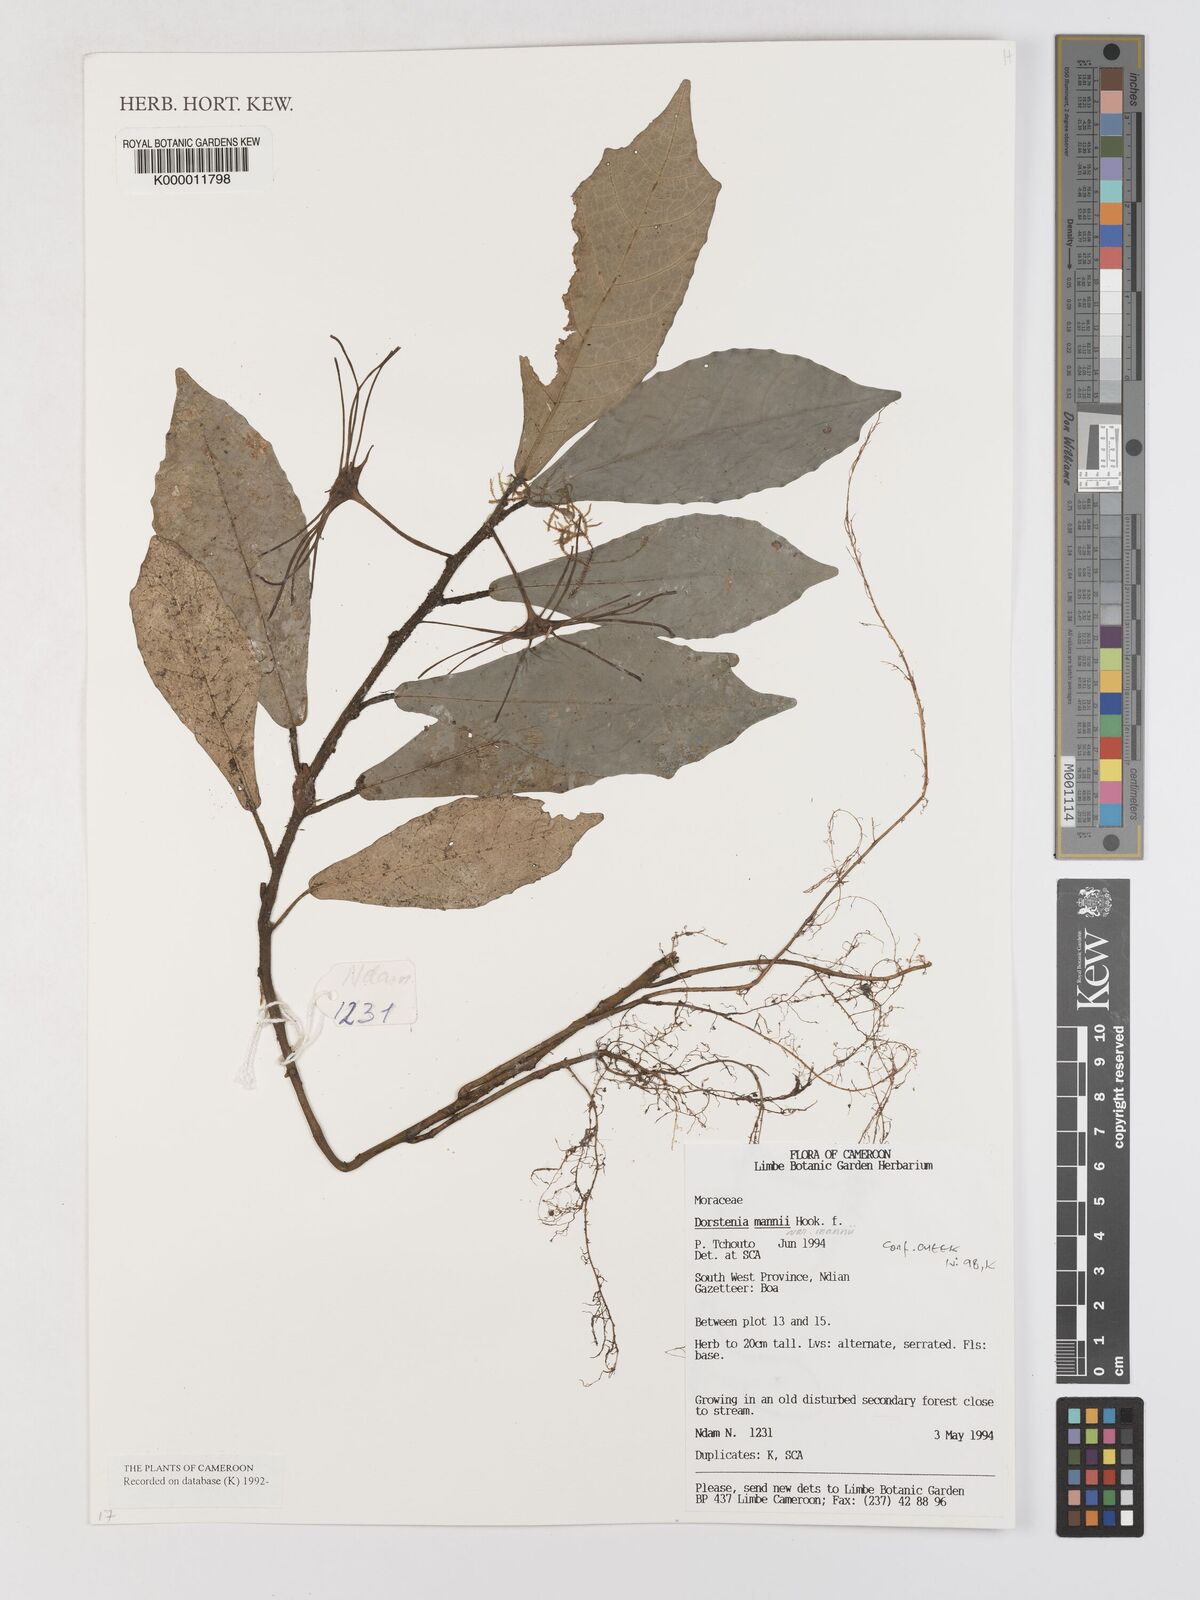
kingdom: Plantae
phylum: Tracheophyta
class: Magnoliopsida
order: Rosales
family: Moraceae
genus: Dorstenia
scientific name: Dorstenia mannii
